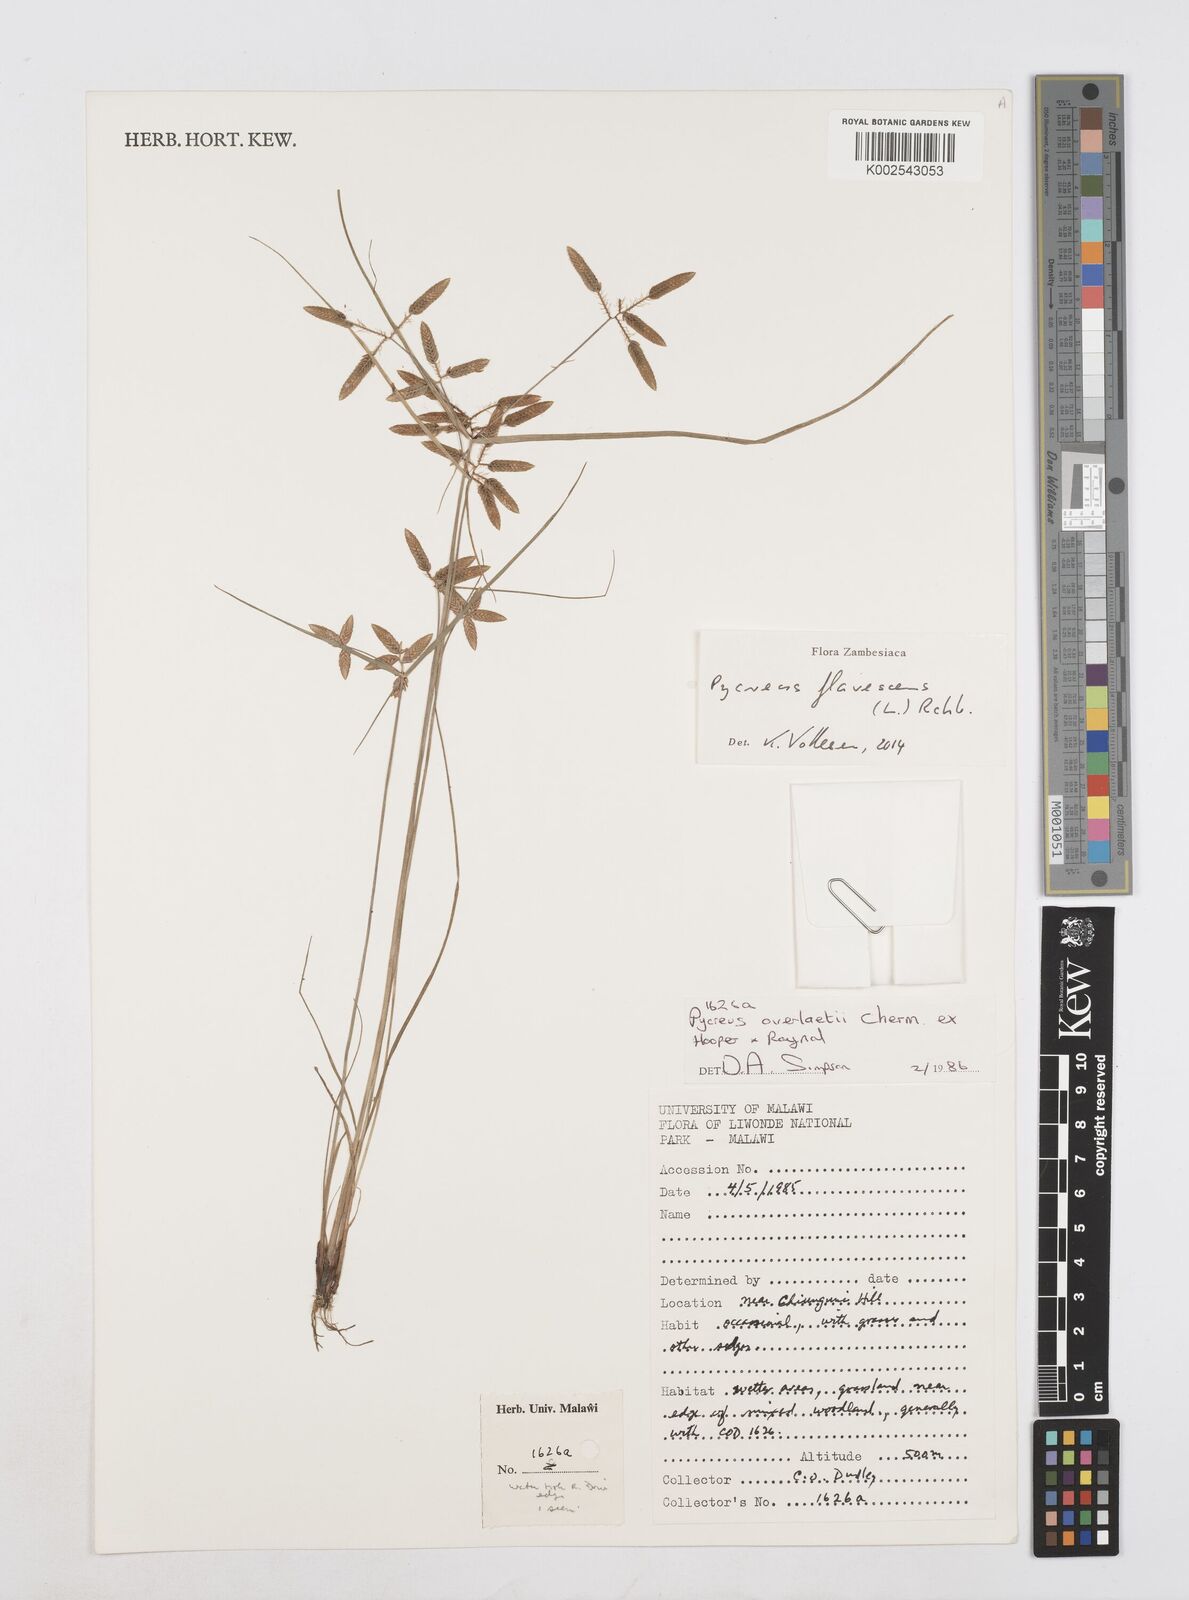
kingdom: Plantae
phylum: Tracheophyta
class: Liliopsida
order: Poales
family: Cyperaceae
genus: Cyperus
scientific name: Cyperus flavescens
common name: Yellow galingale
